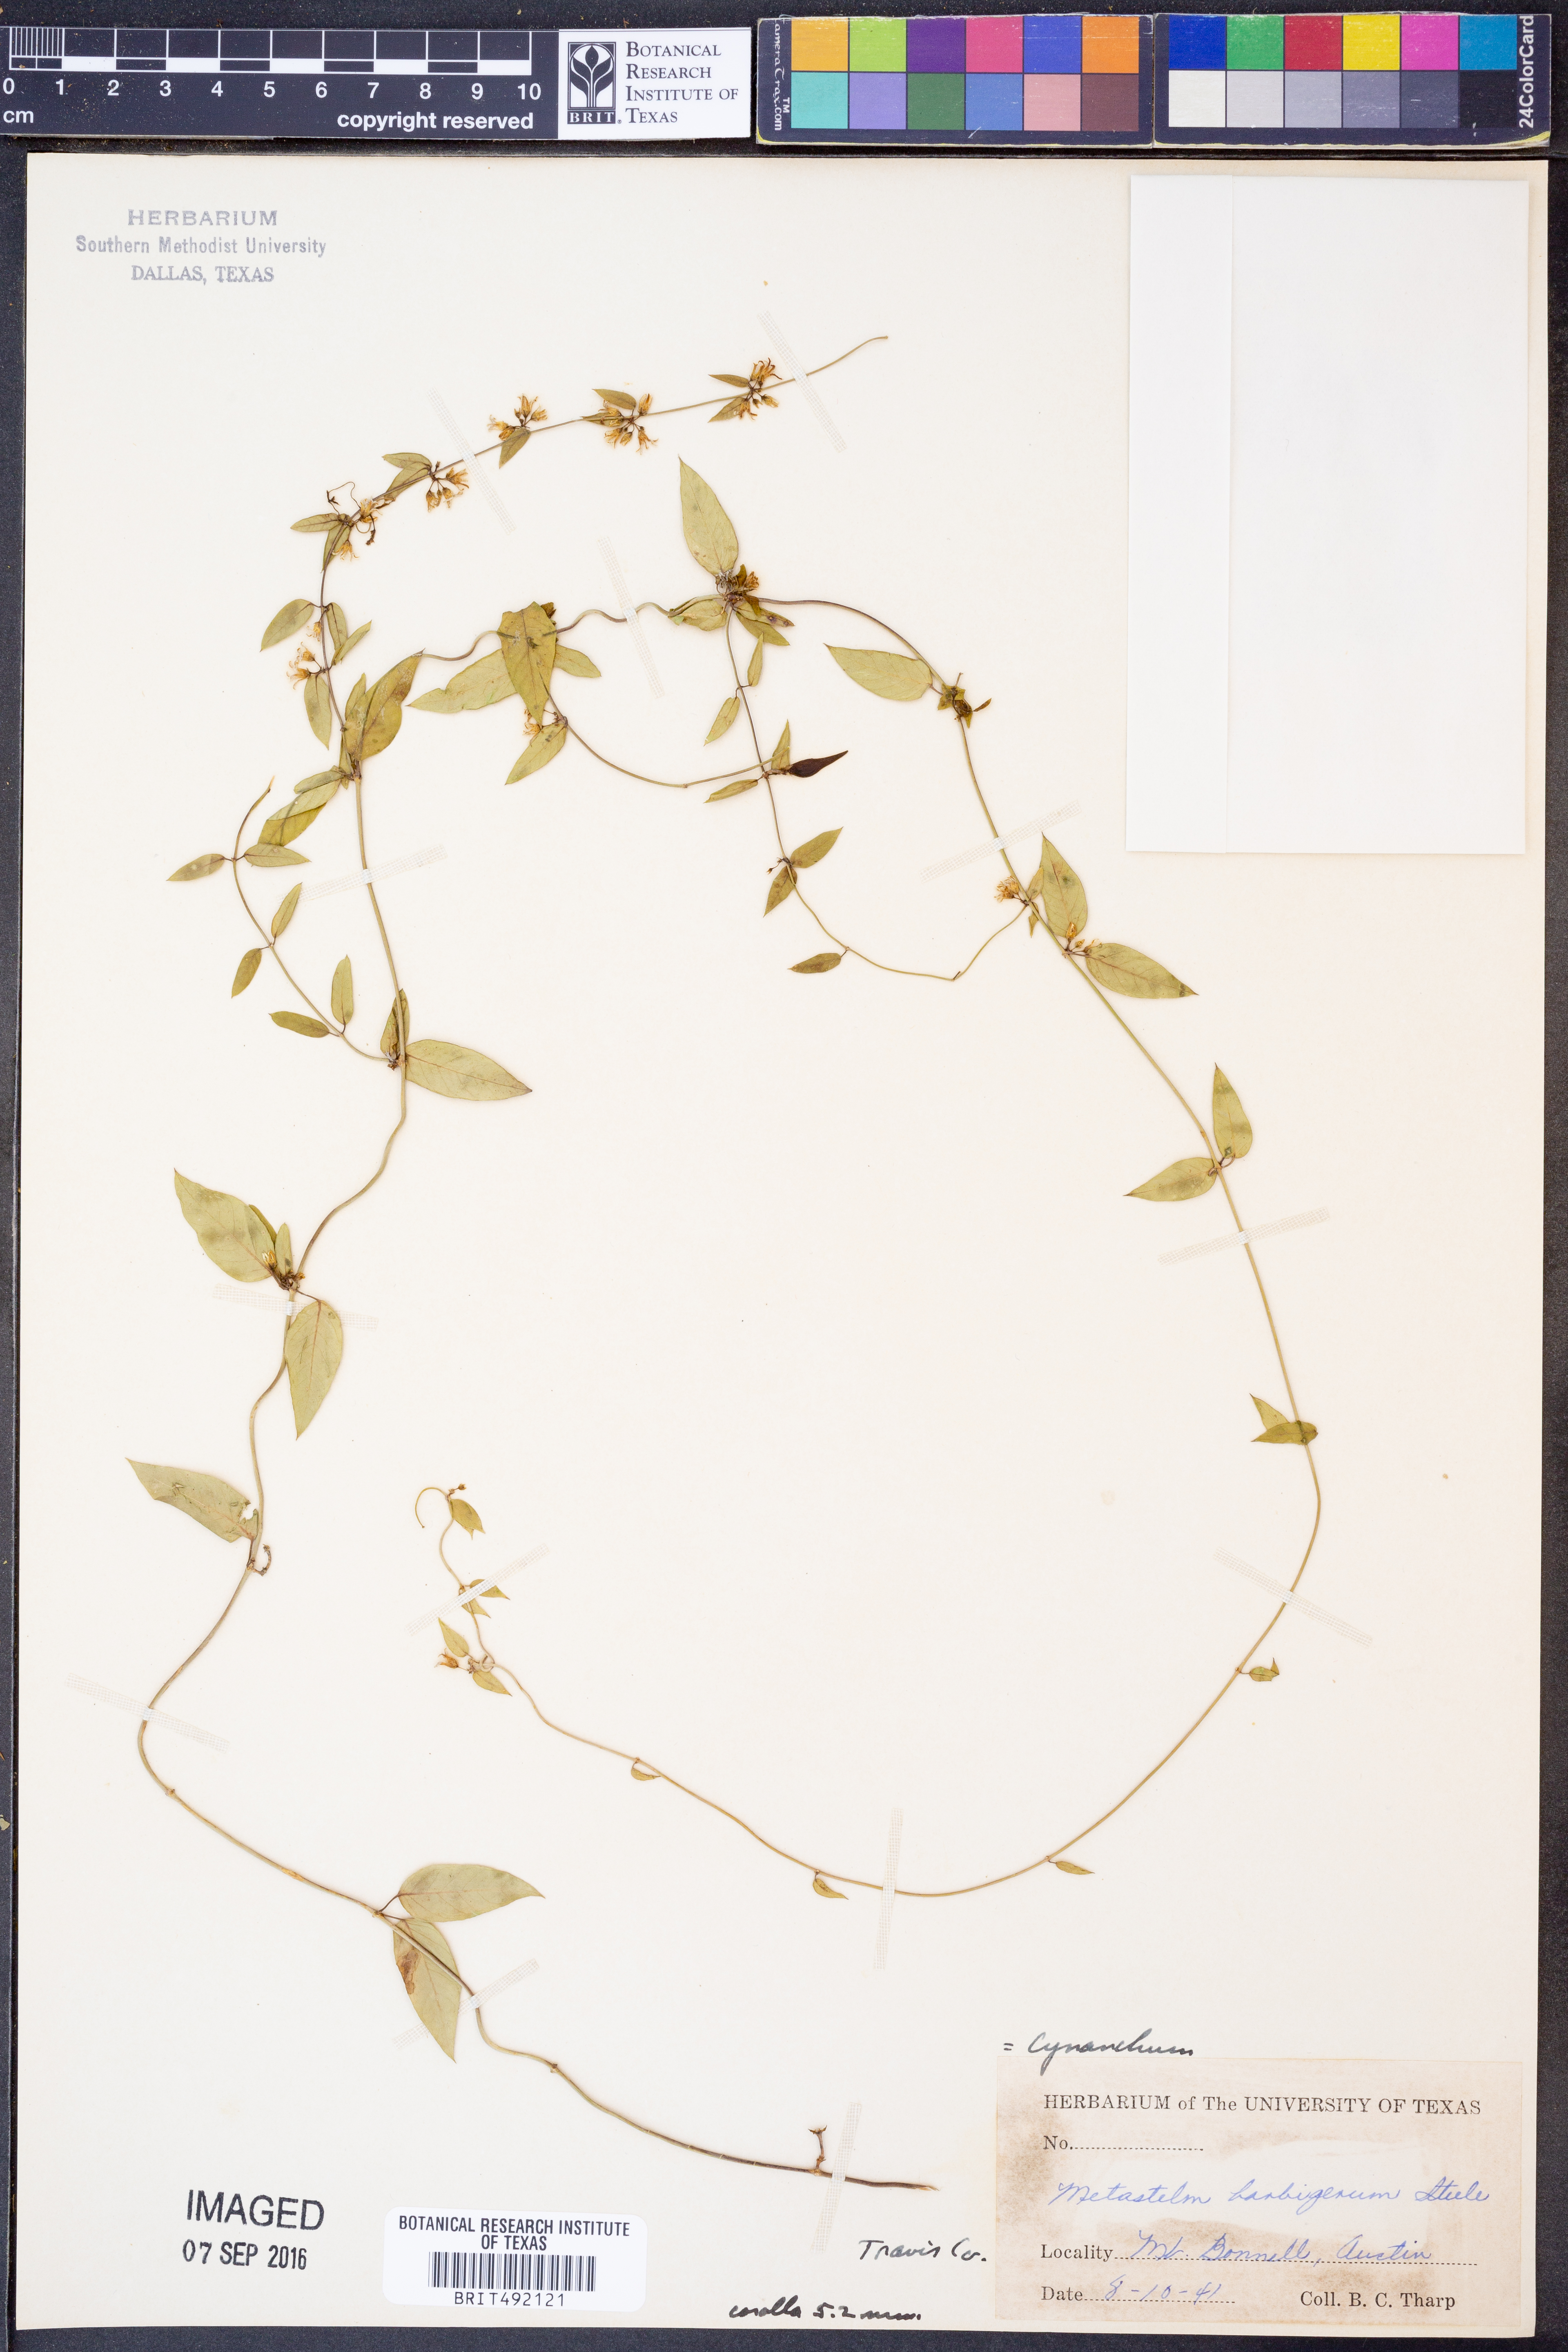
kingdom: Plantae
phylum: Tracheophyta
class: Magnoliopsida
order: Gentianales
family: Apocynaceae
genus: Metastelma
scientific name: Metastelma barbigerum
